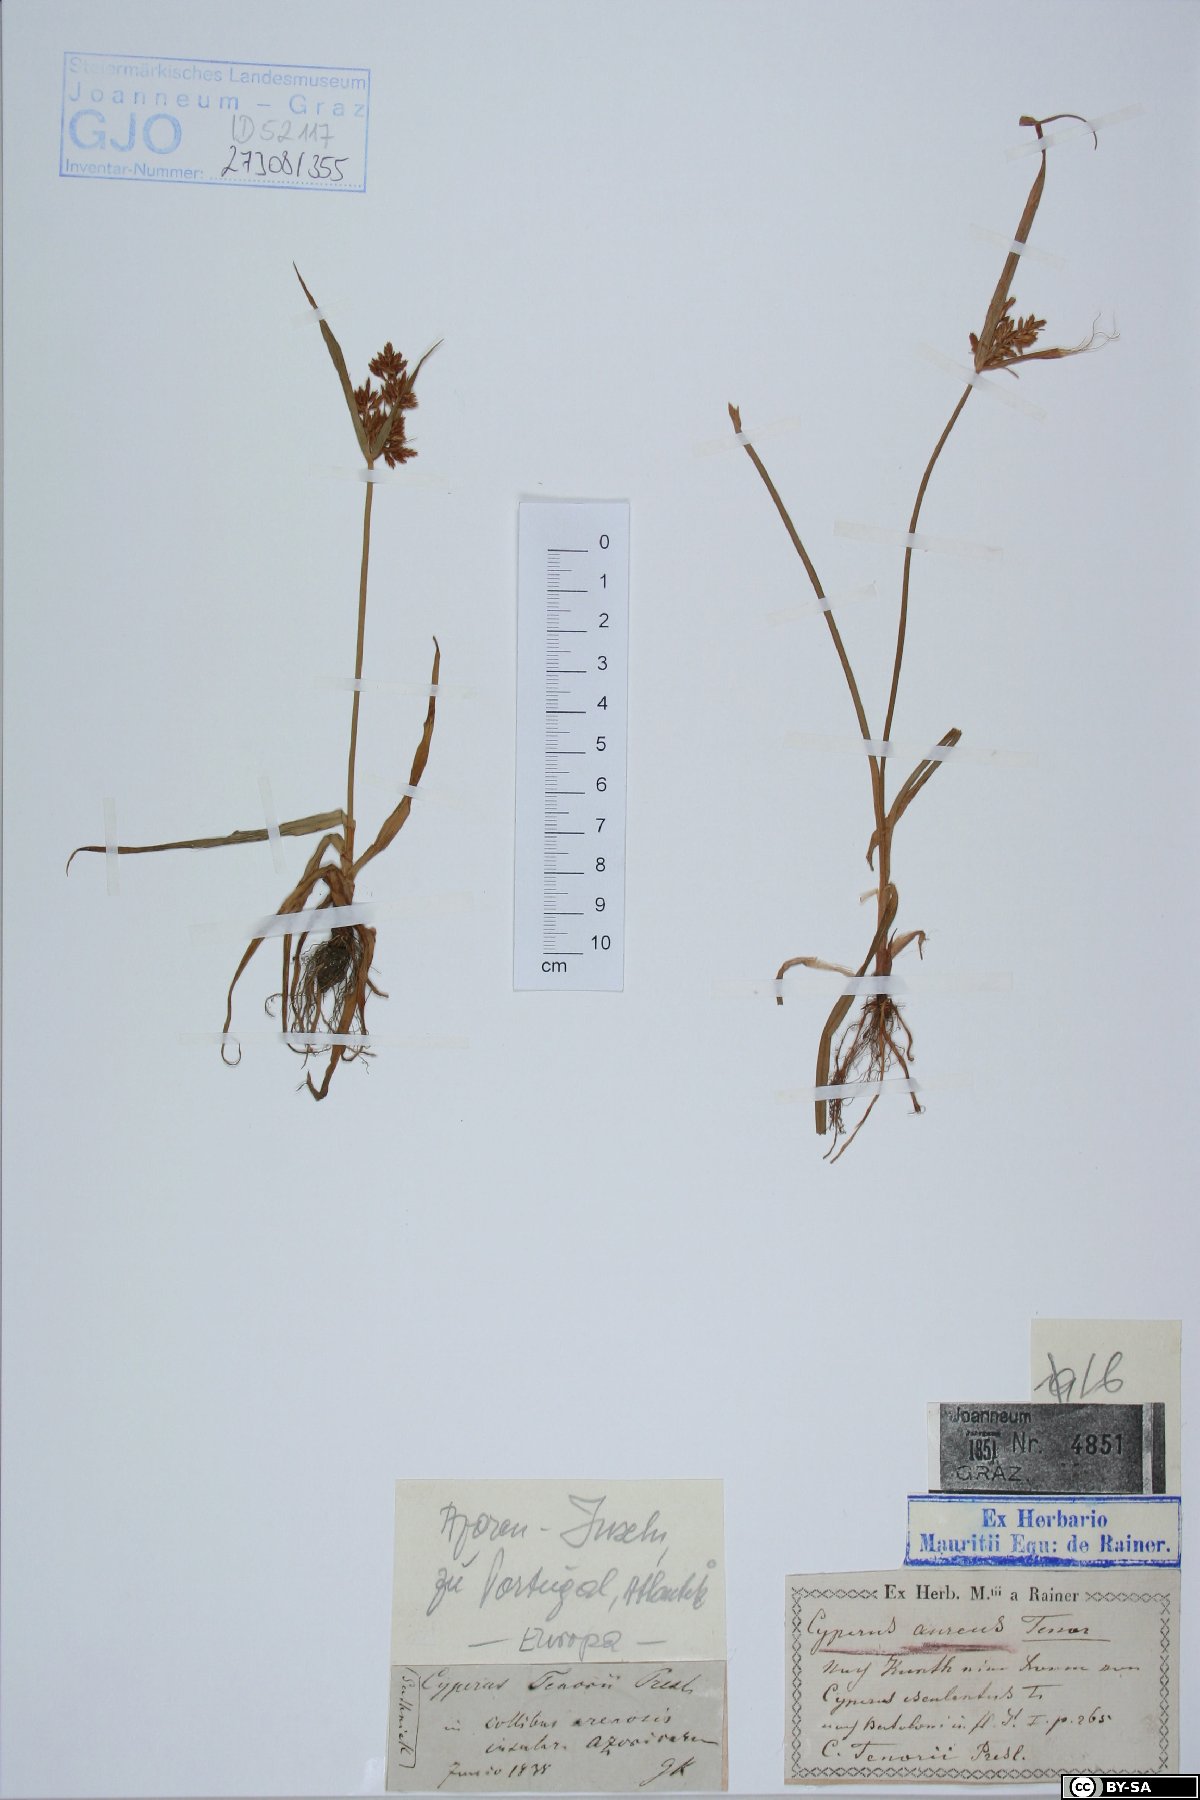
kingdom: Plantae
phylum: Tracheophyta
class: Liliopsida
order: Poales
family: Cyperaceae
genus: Cyperus
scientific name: Cyperus esculentus
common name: Yellow nutsedge
